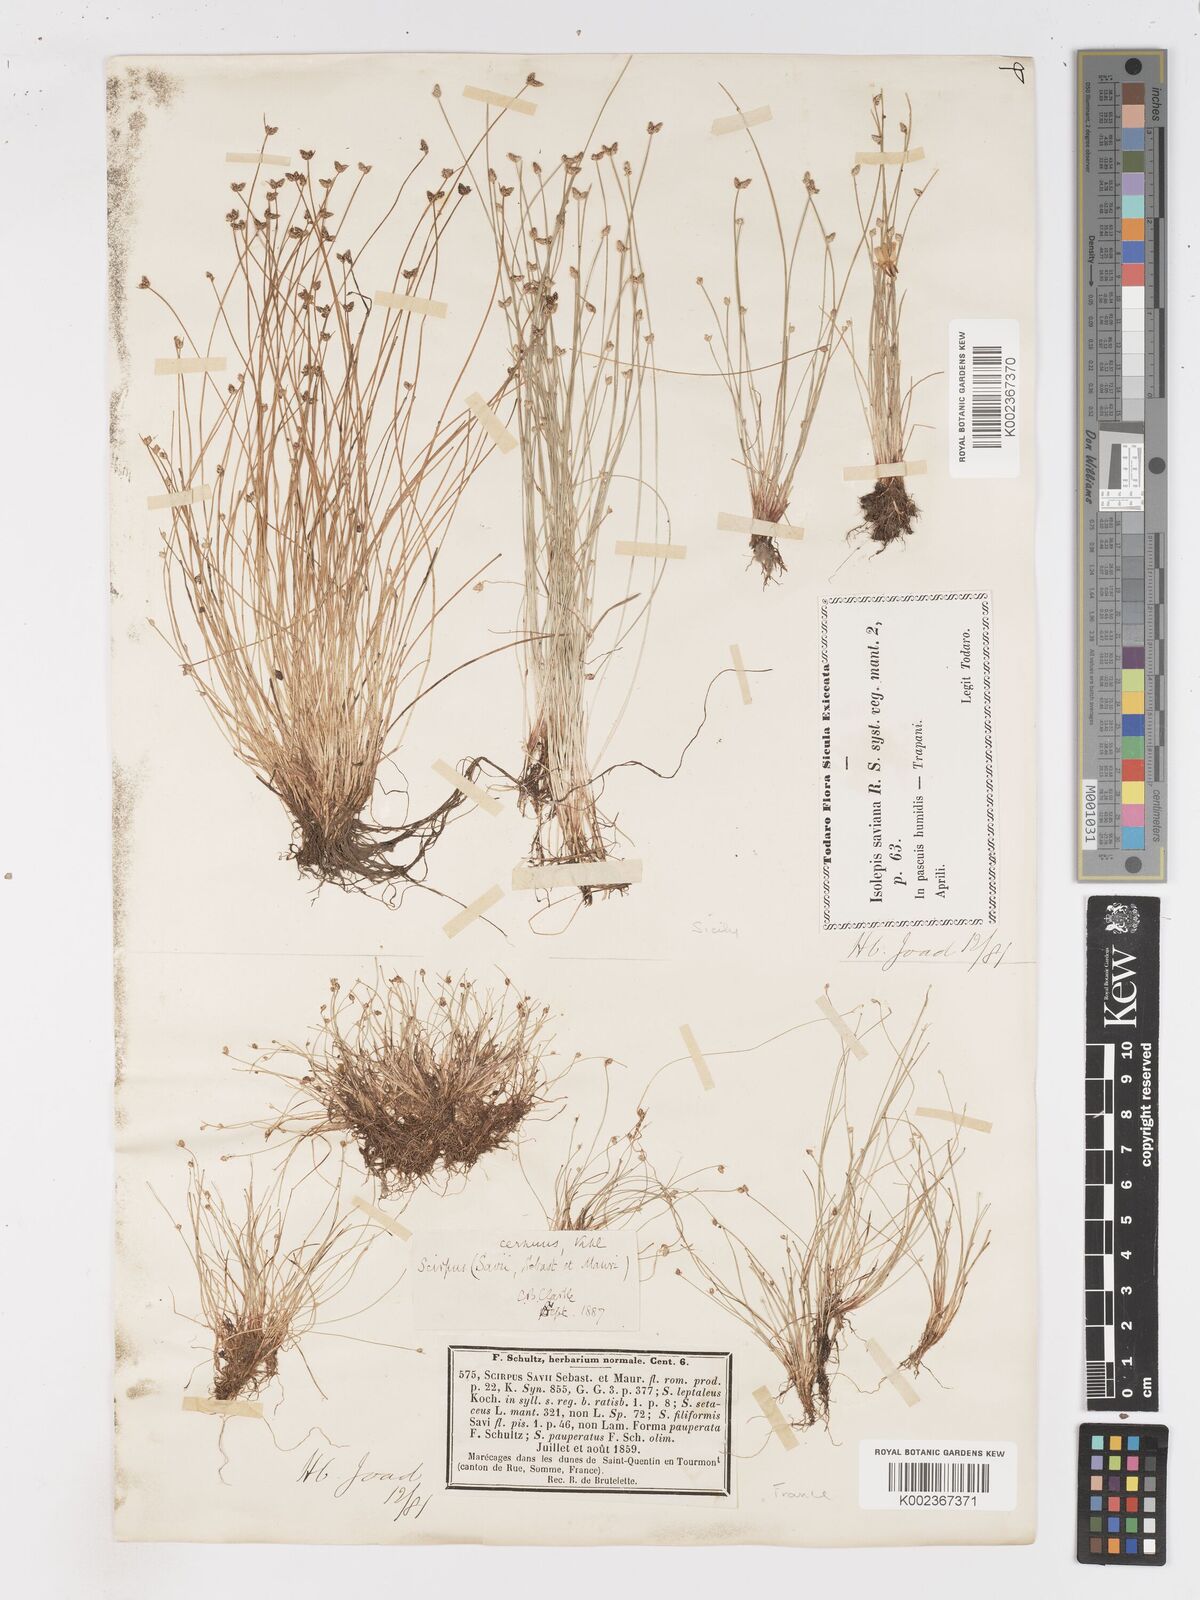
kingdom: Plantae
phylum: Tracheophyta
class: Liliopsida
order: Poales
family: Cyperaceae
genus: Isolepis
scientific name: Isolepis cernua
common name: Slender club-rush
